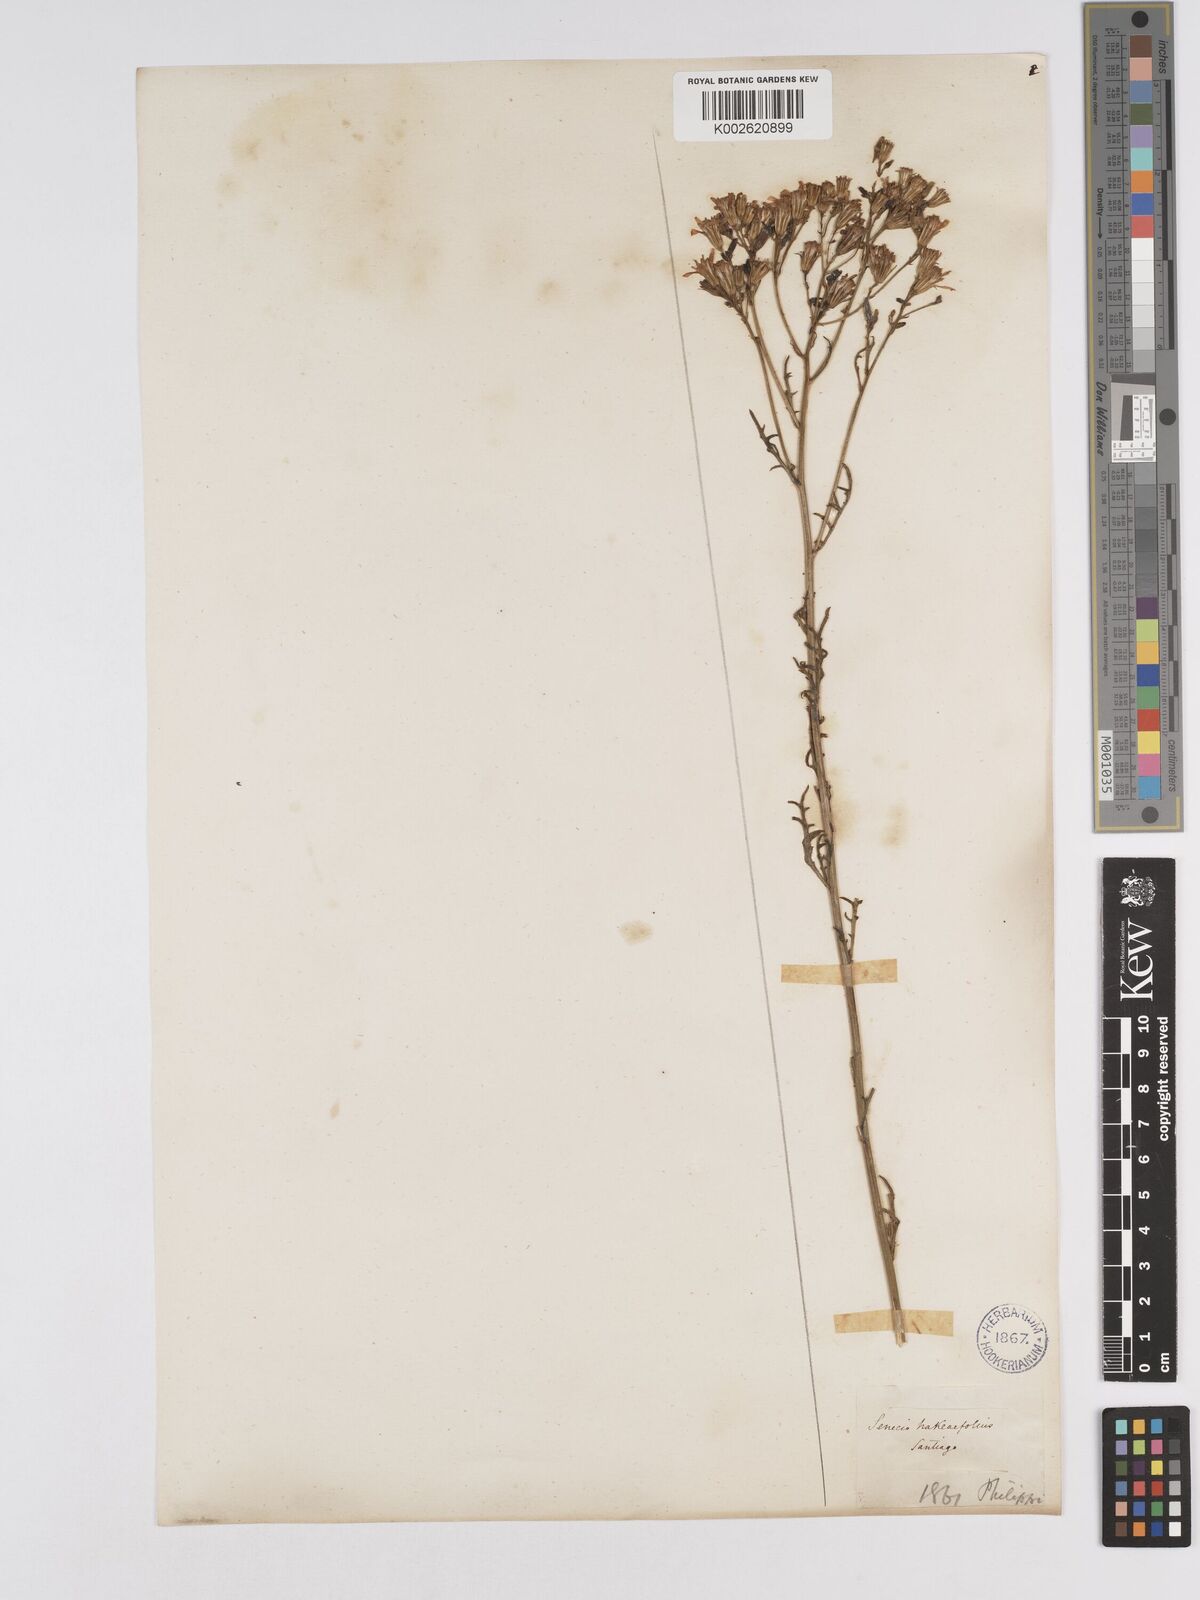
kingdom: Plantae
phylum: Tracheophyta
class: Magnoliopsida
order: Asterales
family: Asteraceae
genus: Senecio
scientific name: Senecio glaber
